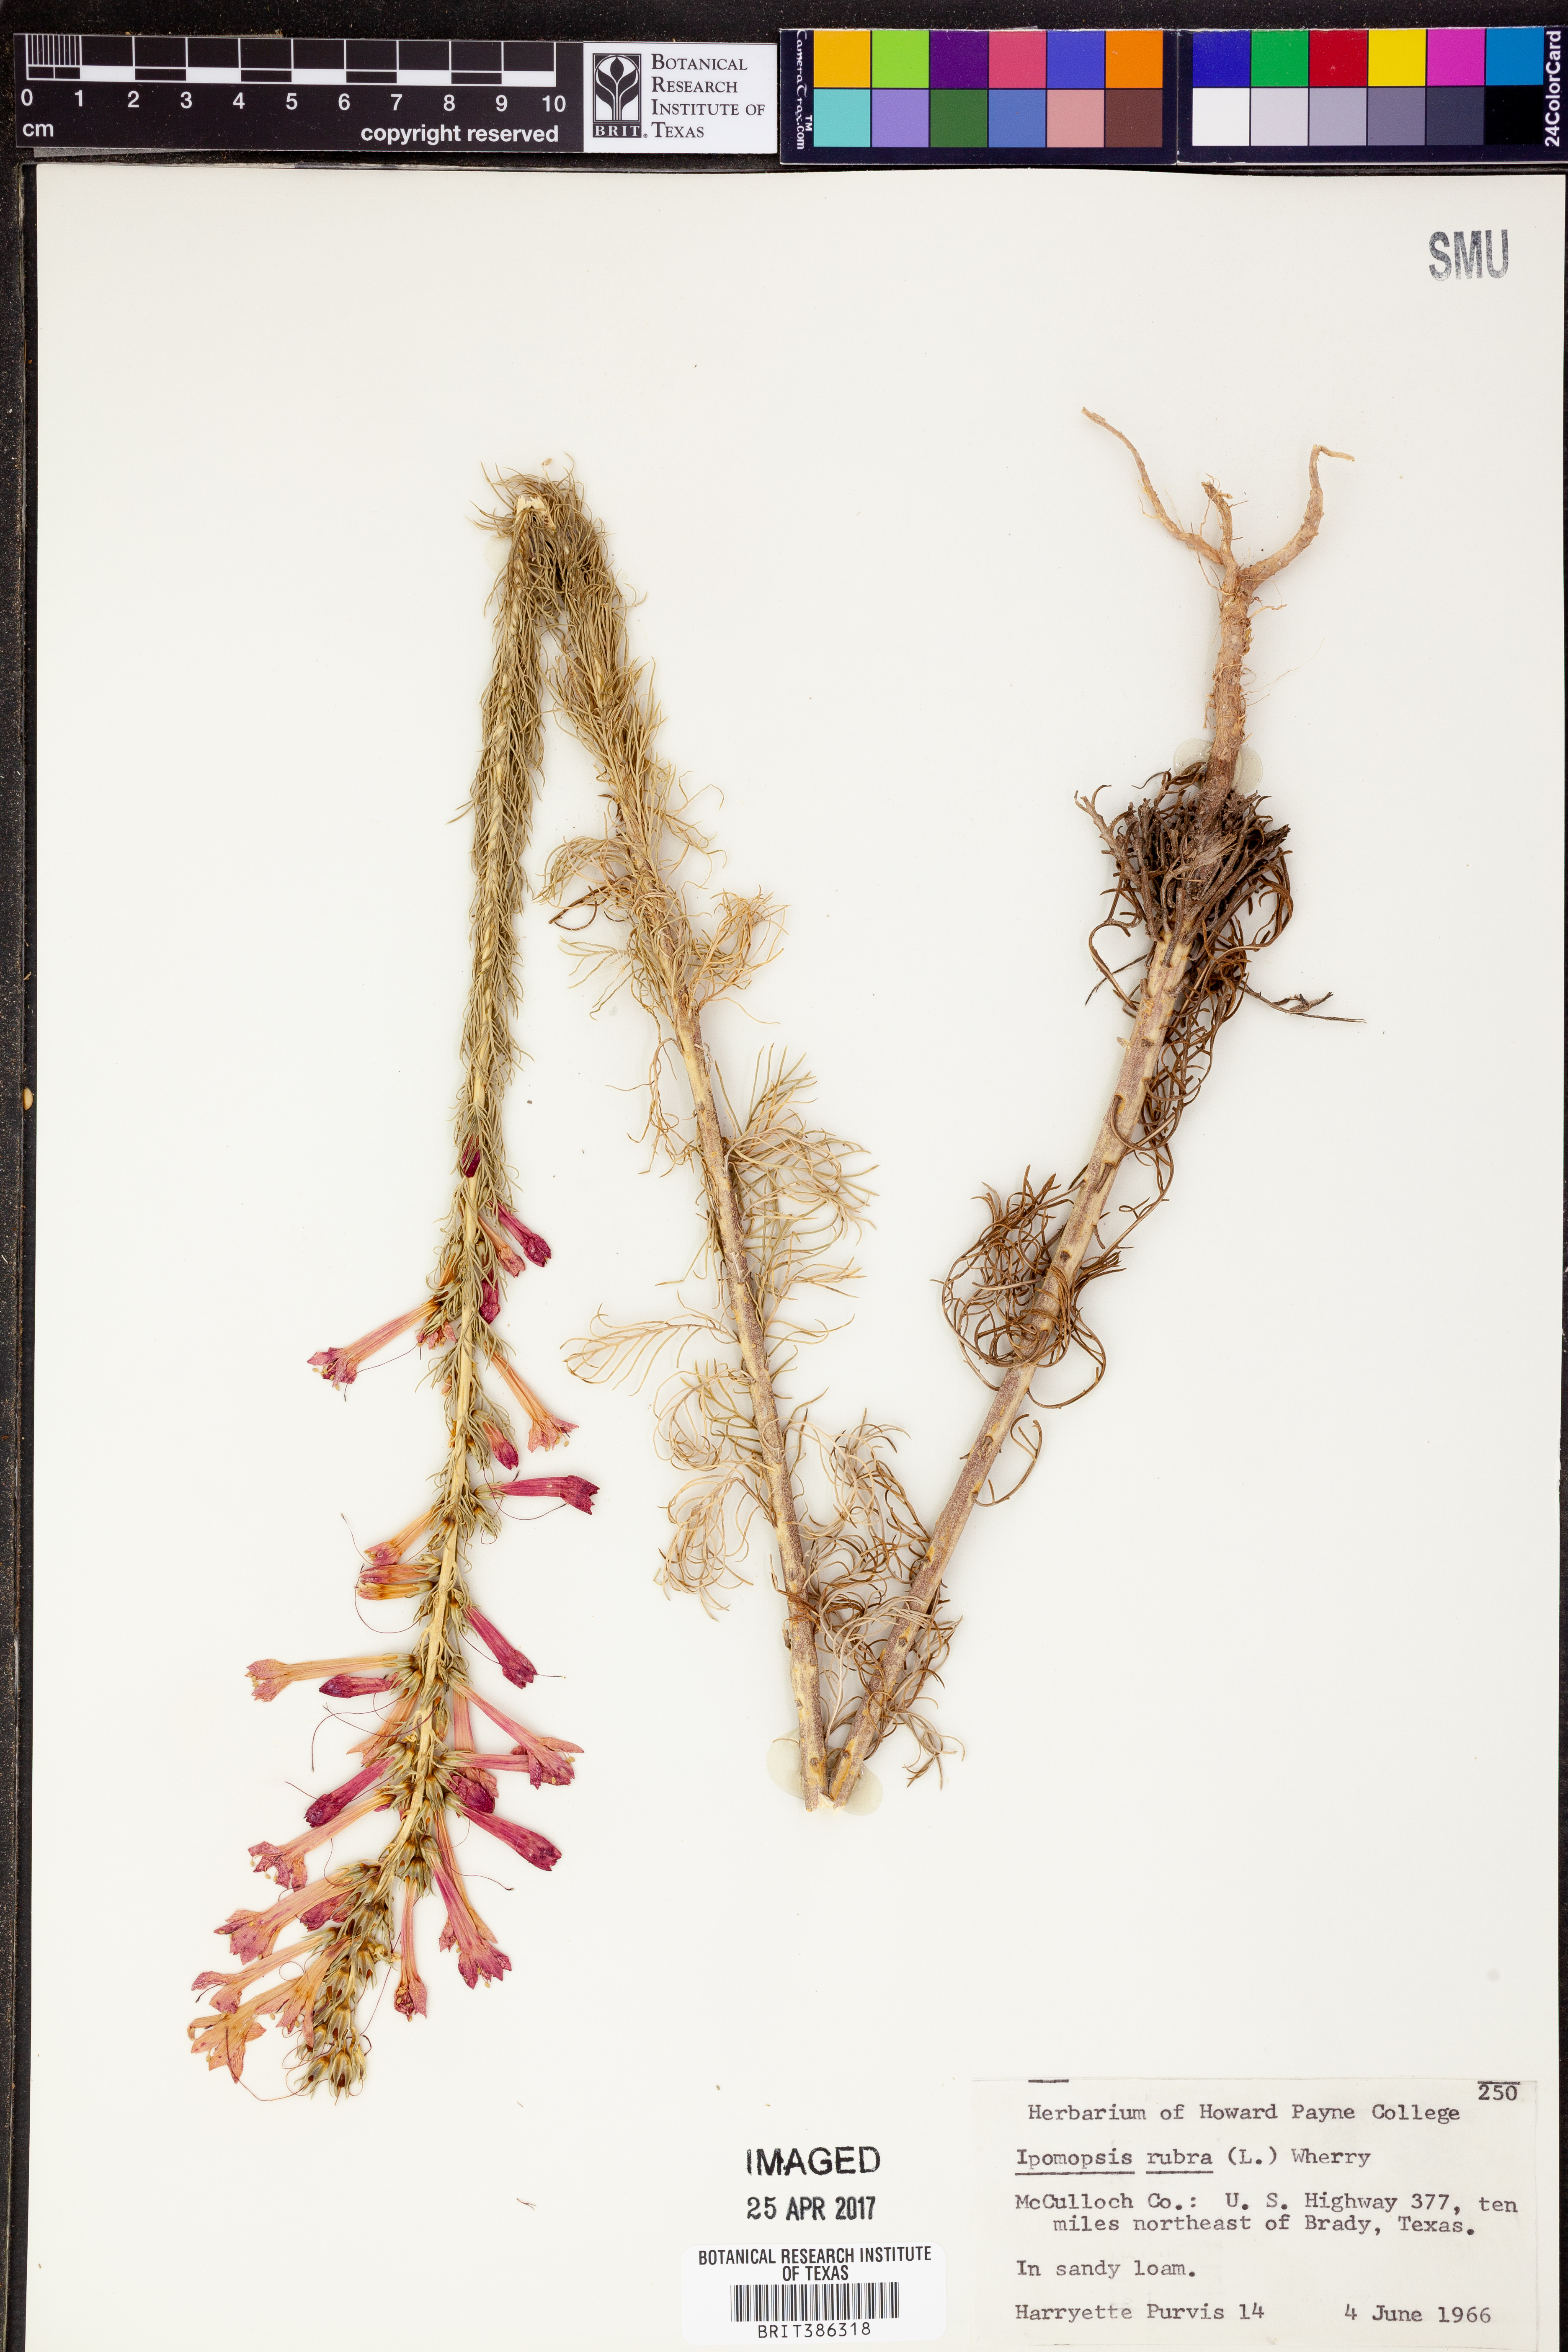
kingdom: Plantae
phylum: Tracheophyta
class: Magnoliopsida
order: Ericales
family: Polemoniaceae
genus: Ipomopsis
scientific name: Ipomopsis rubra
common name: Skyrocket
